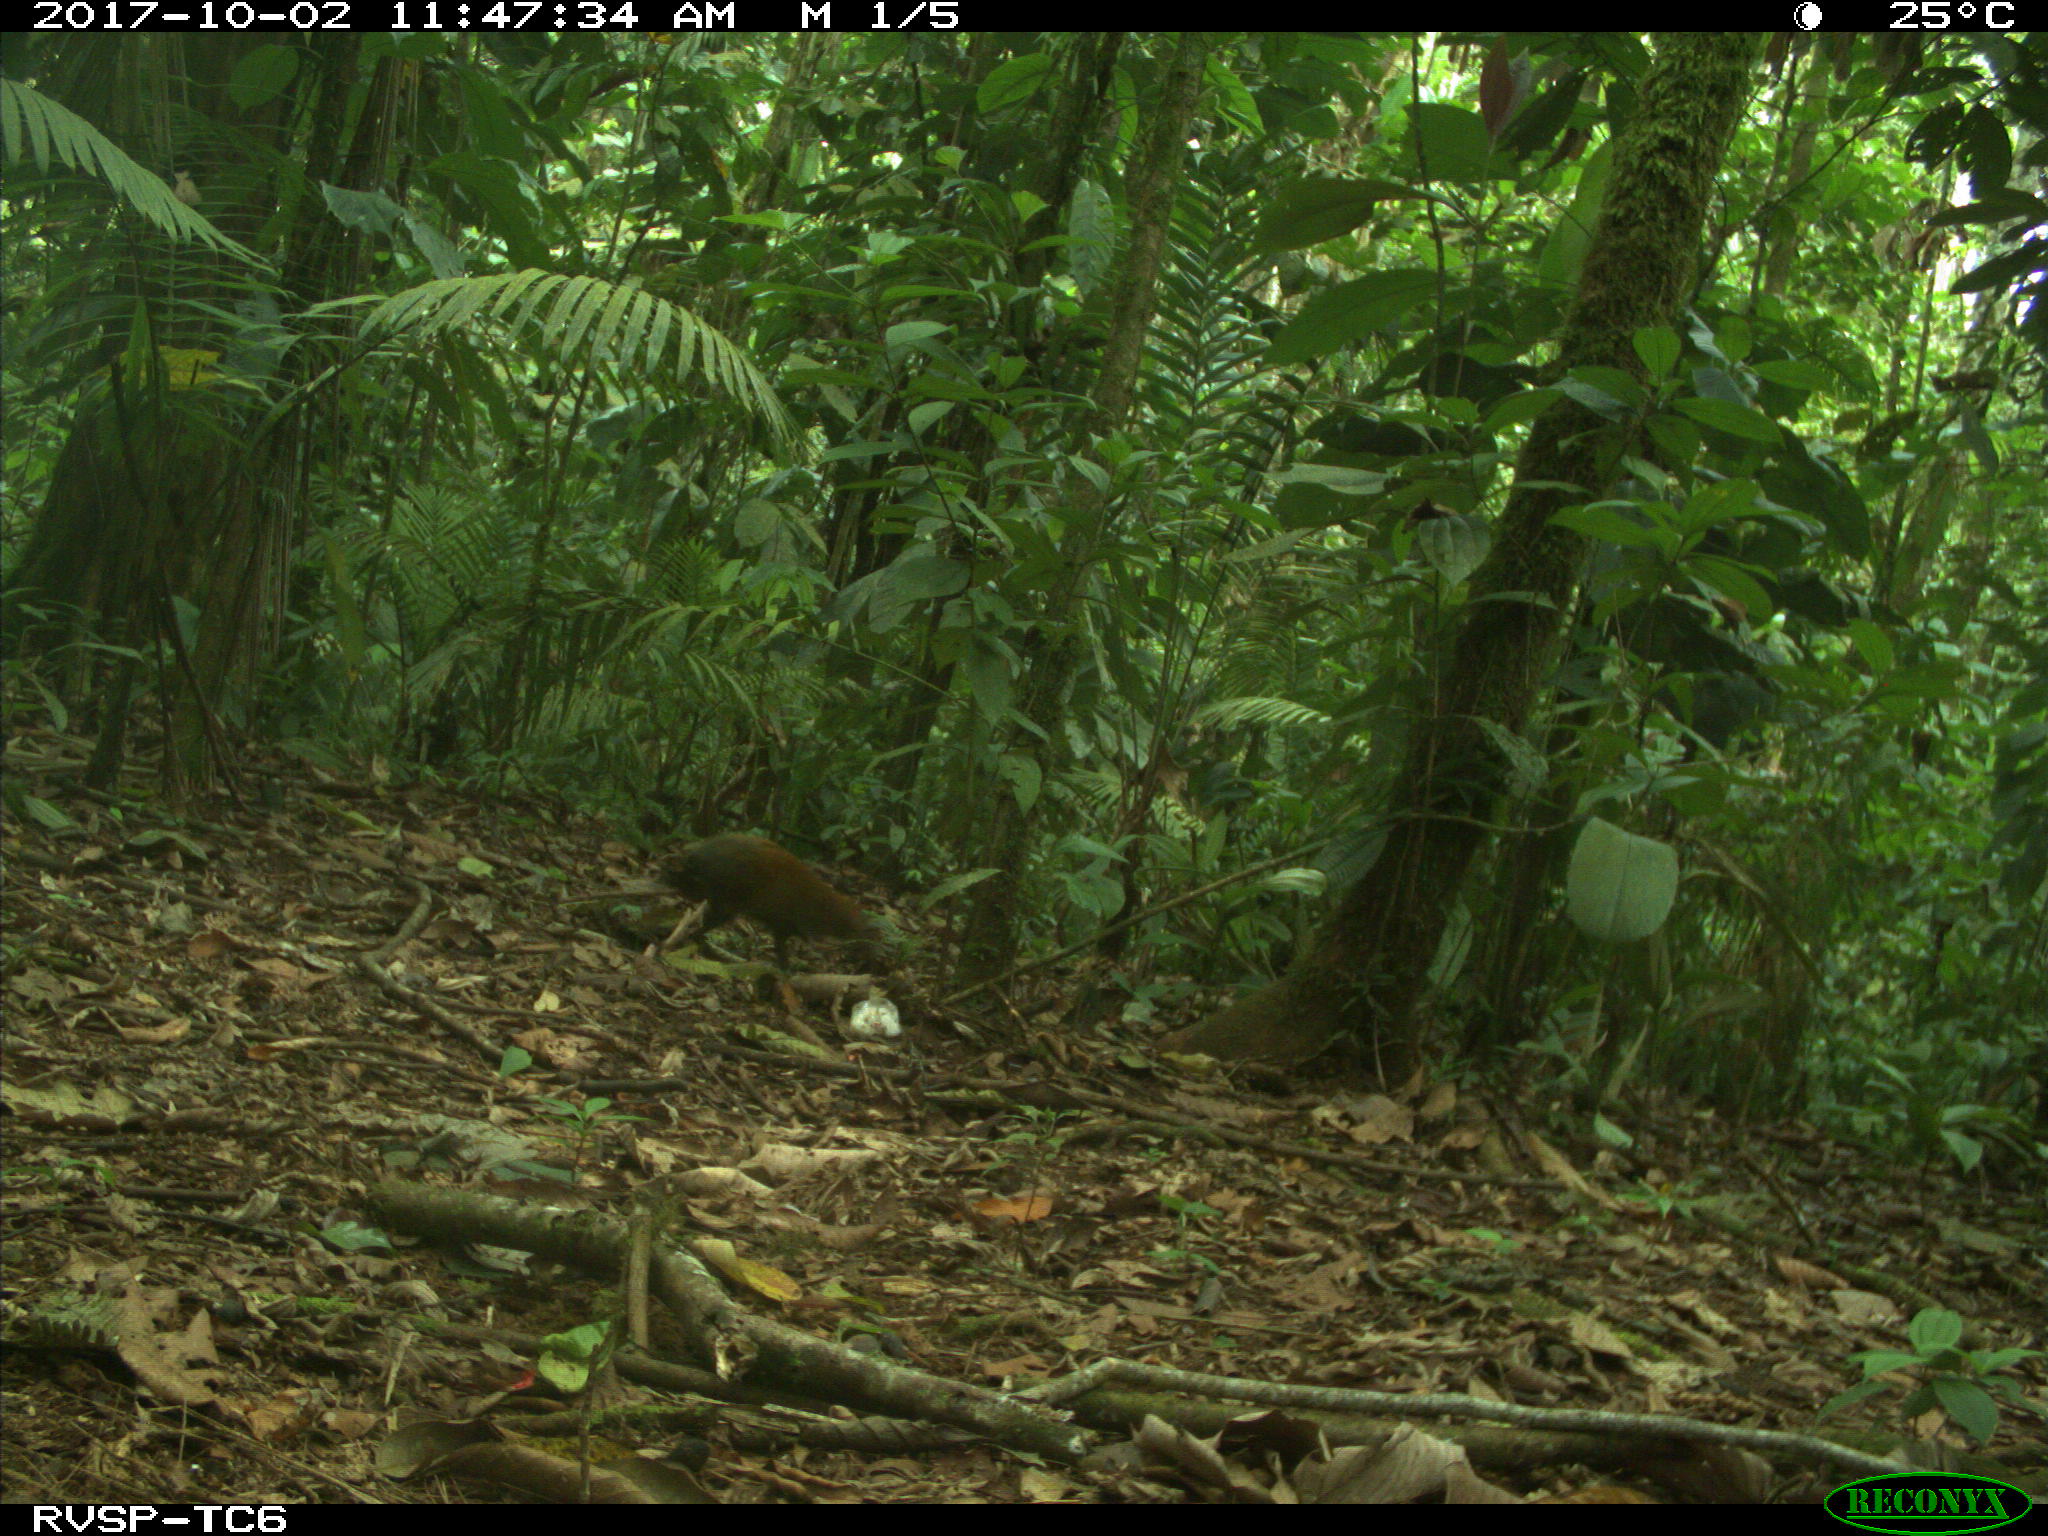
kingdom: Animalia
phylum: Chordata
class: Mammalia
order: Rodentia
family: Dasyproctidae
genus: Dasyprocta
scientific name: Dasyprocta punctata
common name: Central american agouti
